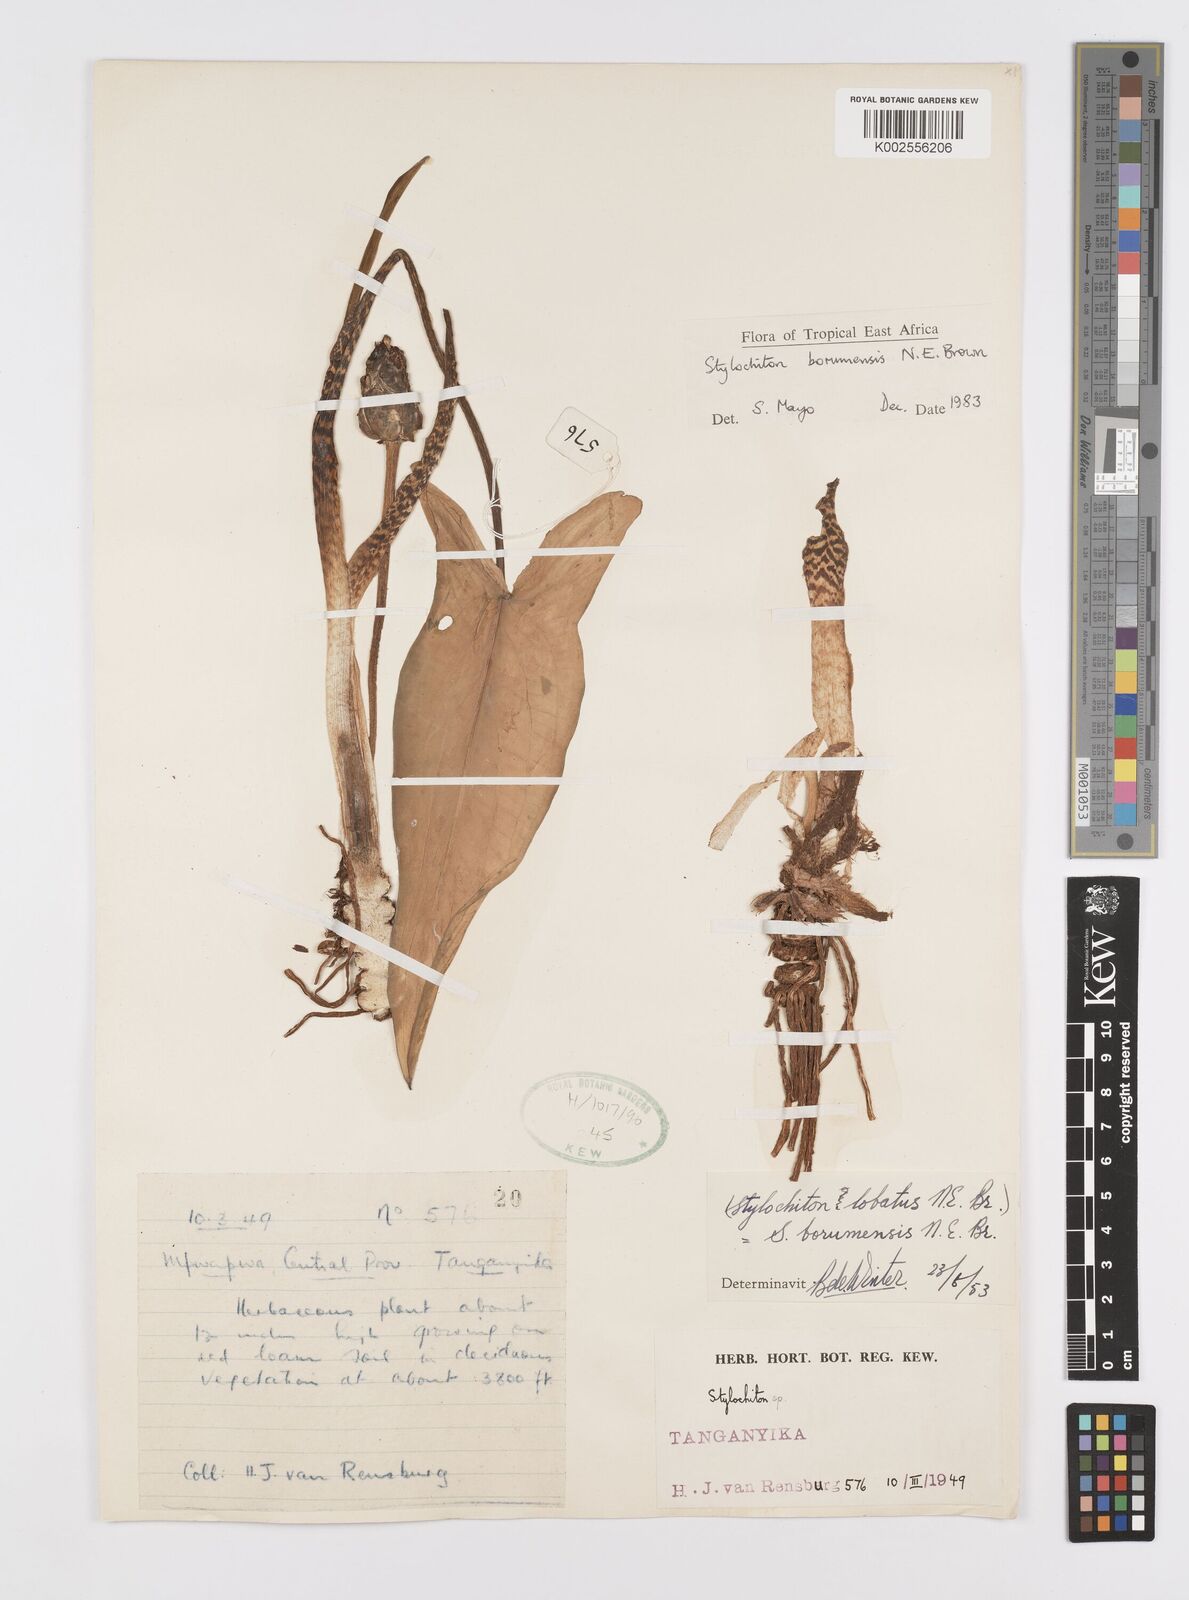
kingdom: Plantae
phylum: Tracheophyta
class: Liliopsida
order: Alismatales
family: Araceae
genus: Stylochaeton
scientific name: Stylochaeton borumense
